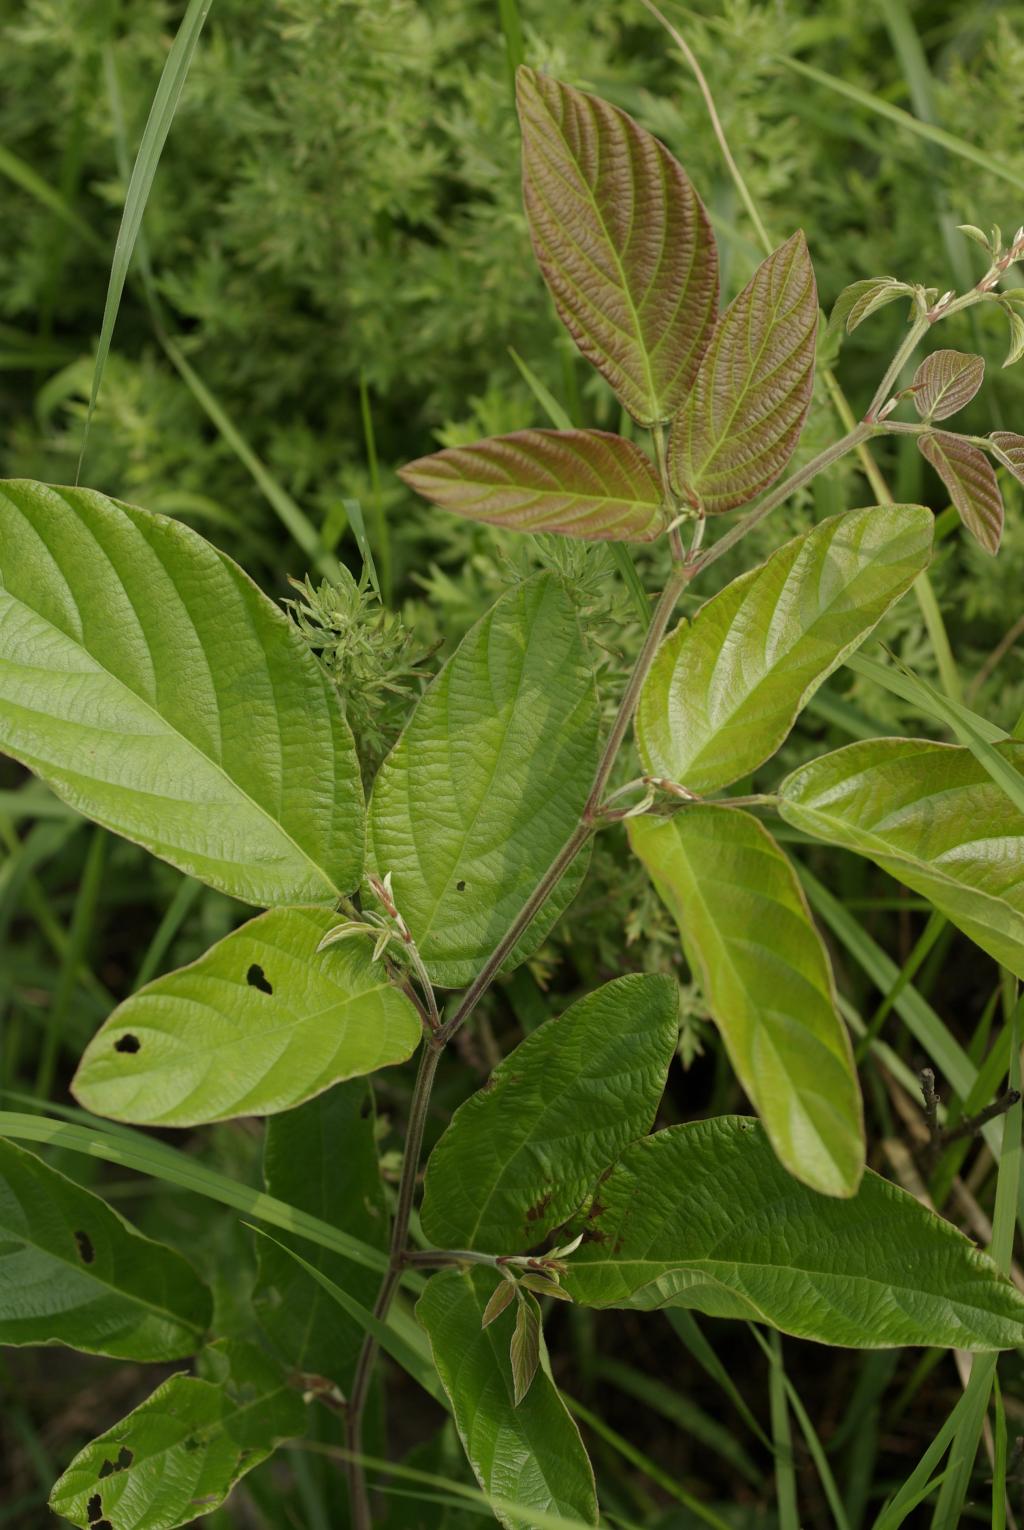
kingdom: Plantae
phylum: Tracheophyta
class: Magnoliopsida
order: Fabales
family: Fabaceae
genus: Phyllodium
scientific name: Phyllodium pulchellum
